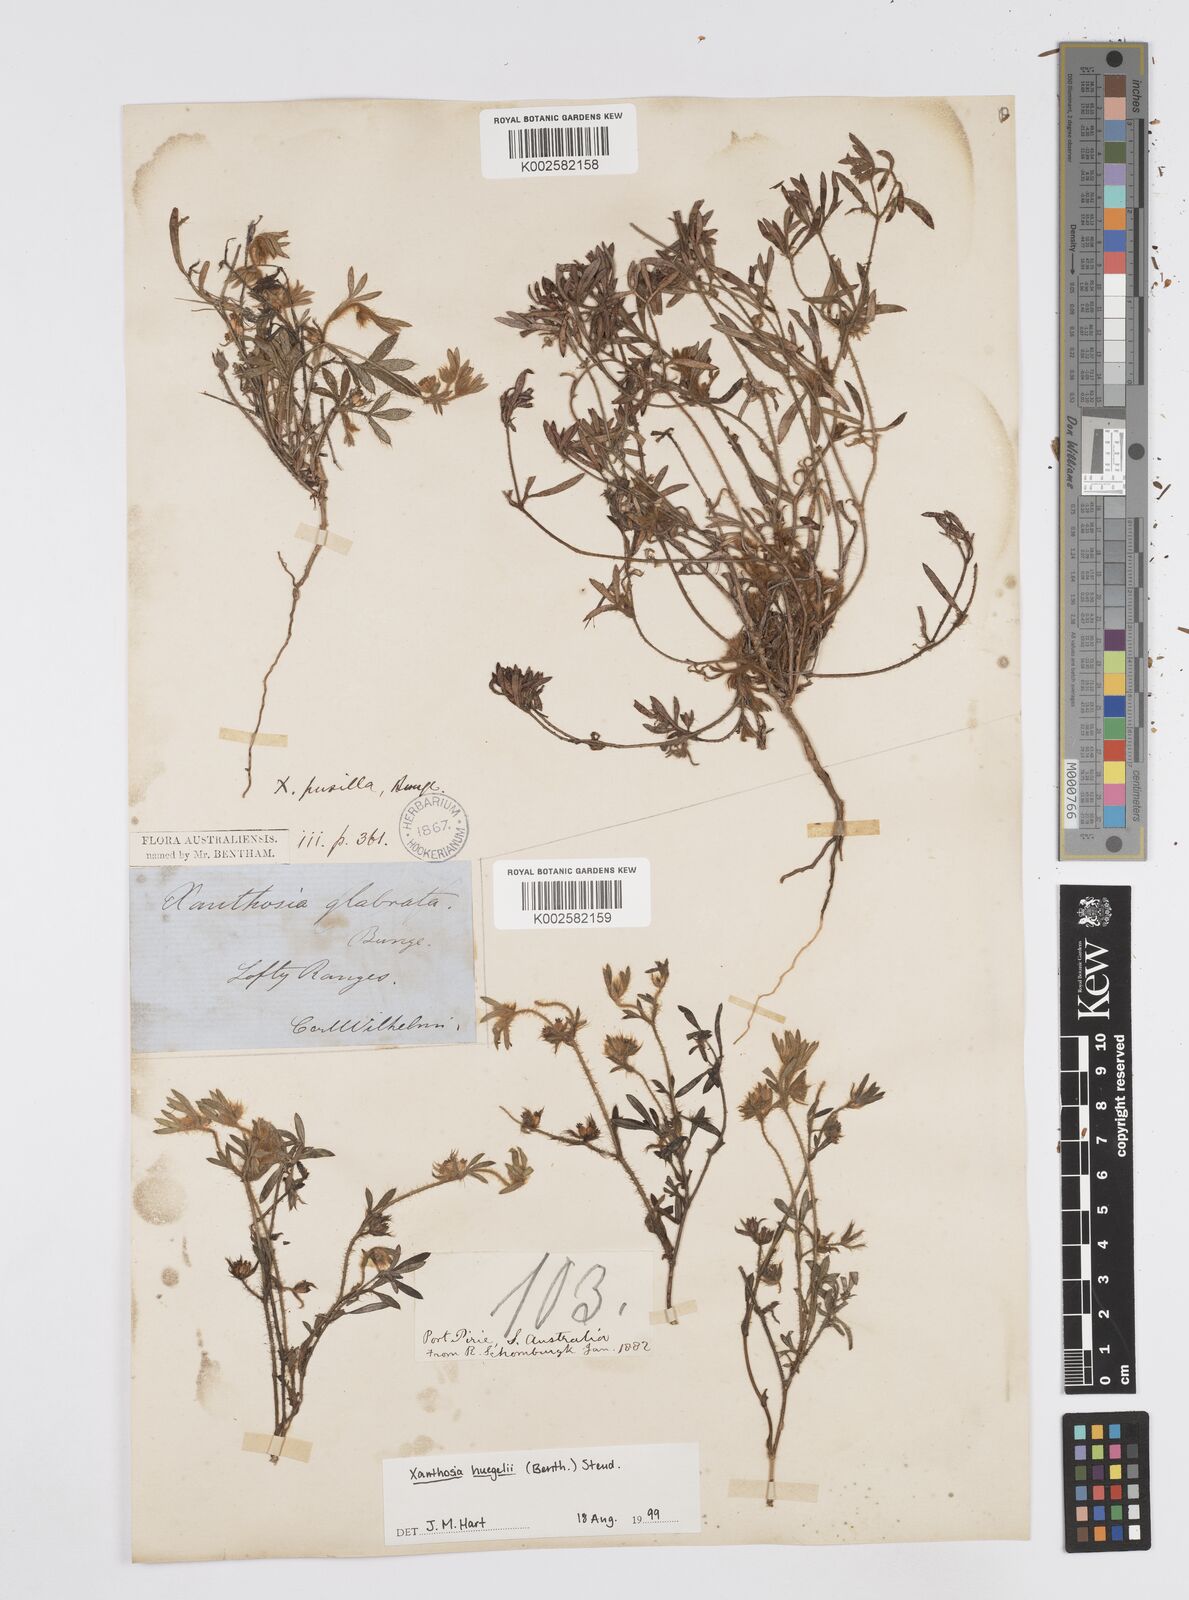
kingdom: Plantae
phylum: Tracheophyta
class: Magnoliopsida
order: Apiales
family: Apiaceae
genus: Xanthosia
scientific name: Xanthosia huegelii
